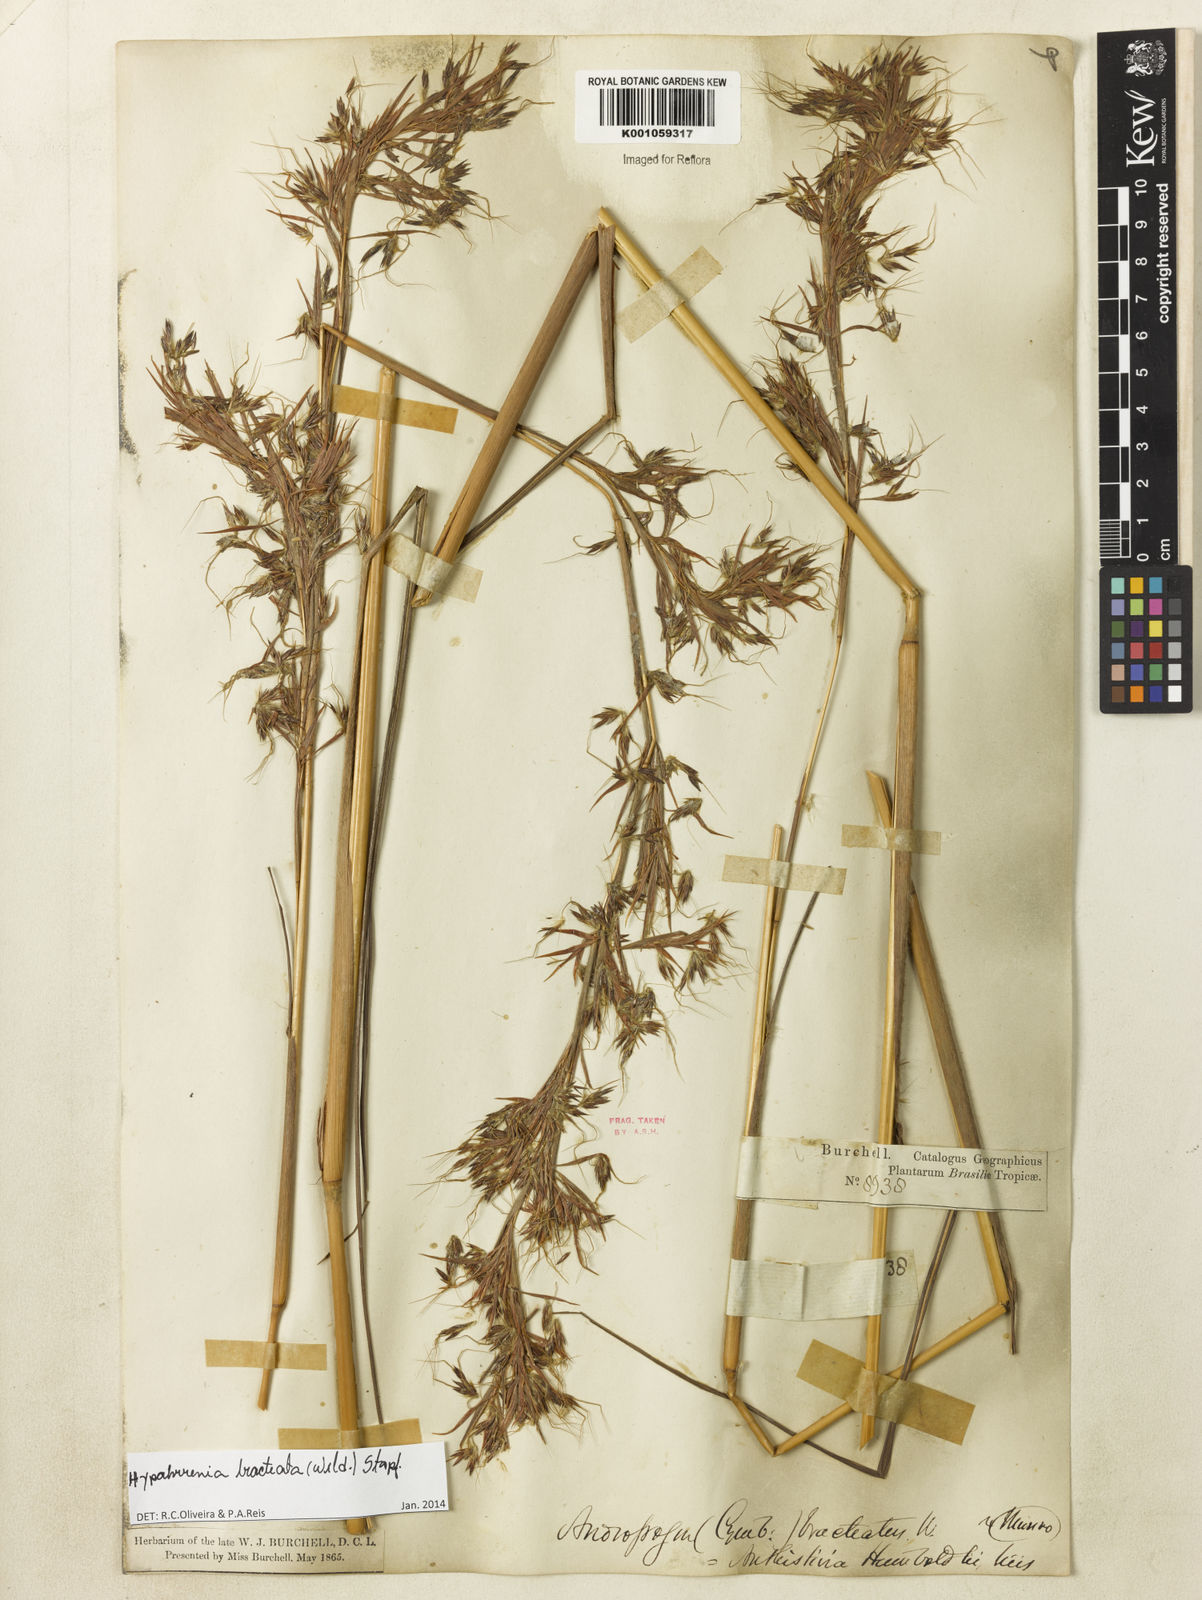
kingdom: Plantae
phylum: Tracheophyta
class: Liliopsida
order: Poales
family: Poaceae
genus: Hyparrhenia
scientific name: Hyparrhenia bracteata
